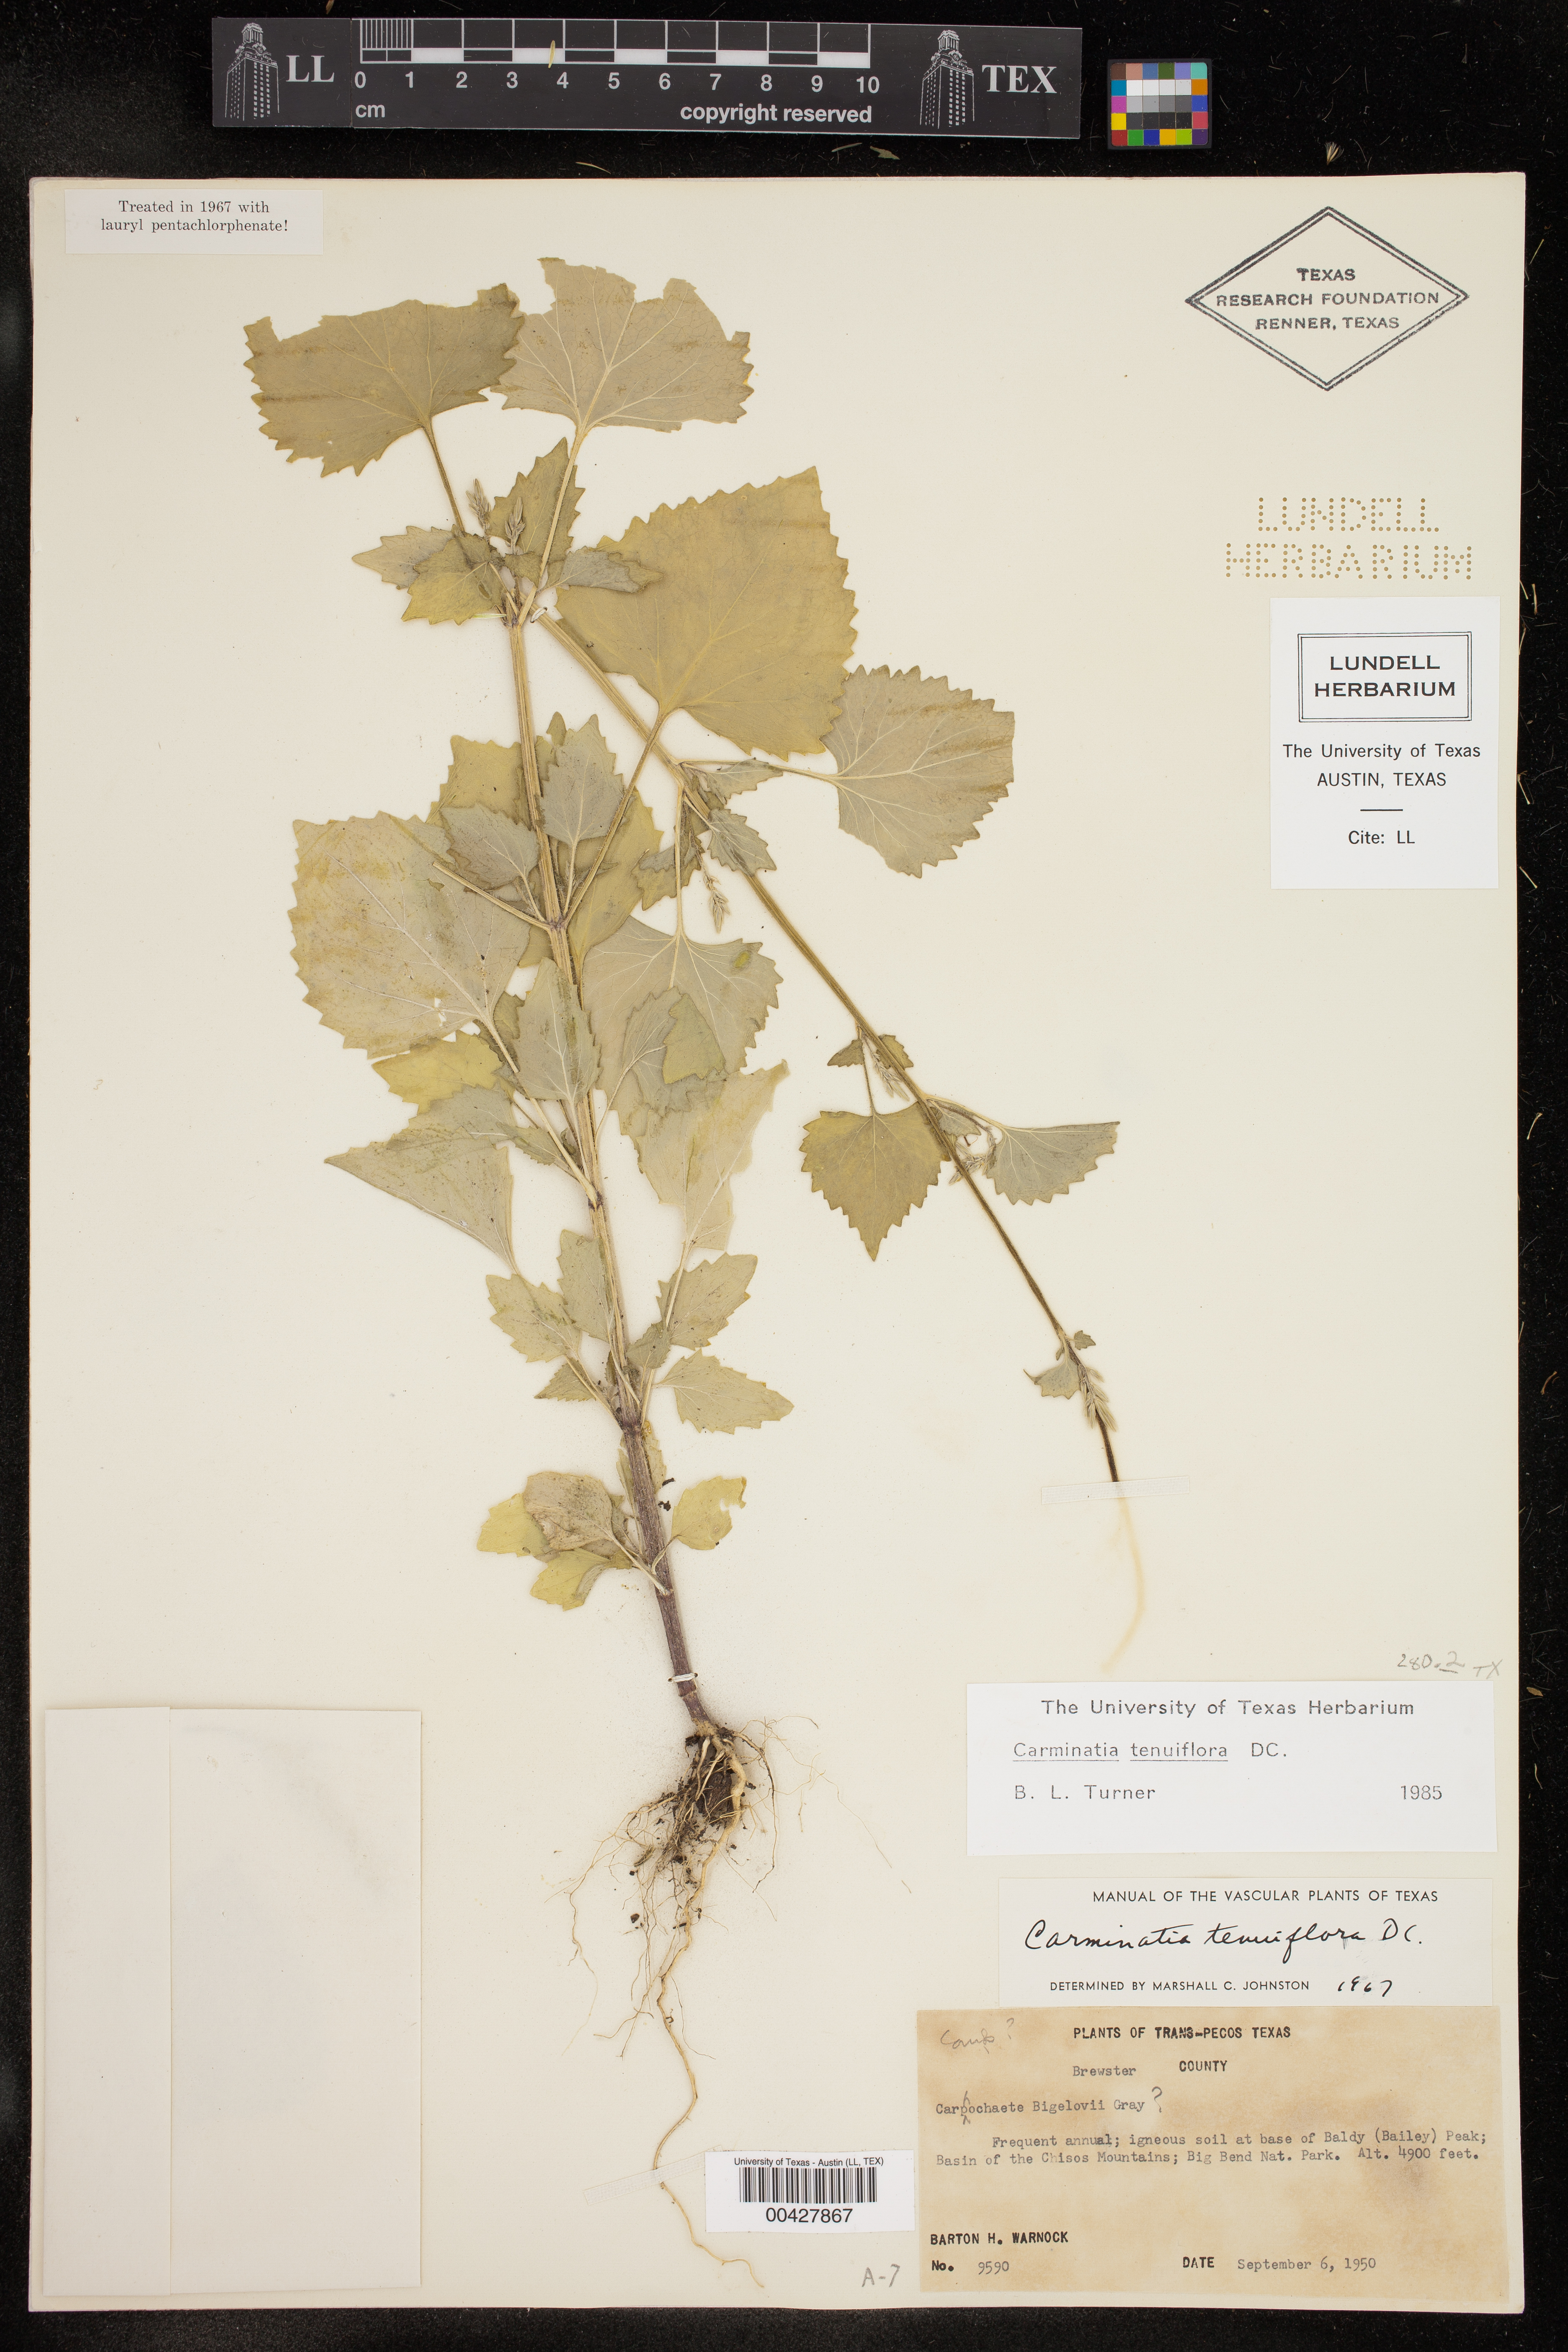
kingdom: Plantae
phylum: Tracheophyta
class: Magnoliopsida
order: Asterales
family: Asteraceae
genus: Carminatia
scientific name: Carminatia tenuiflora
